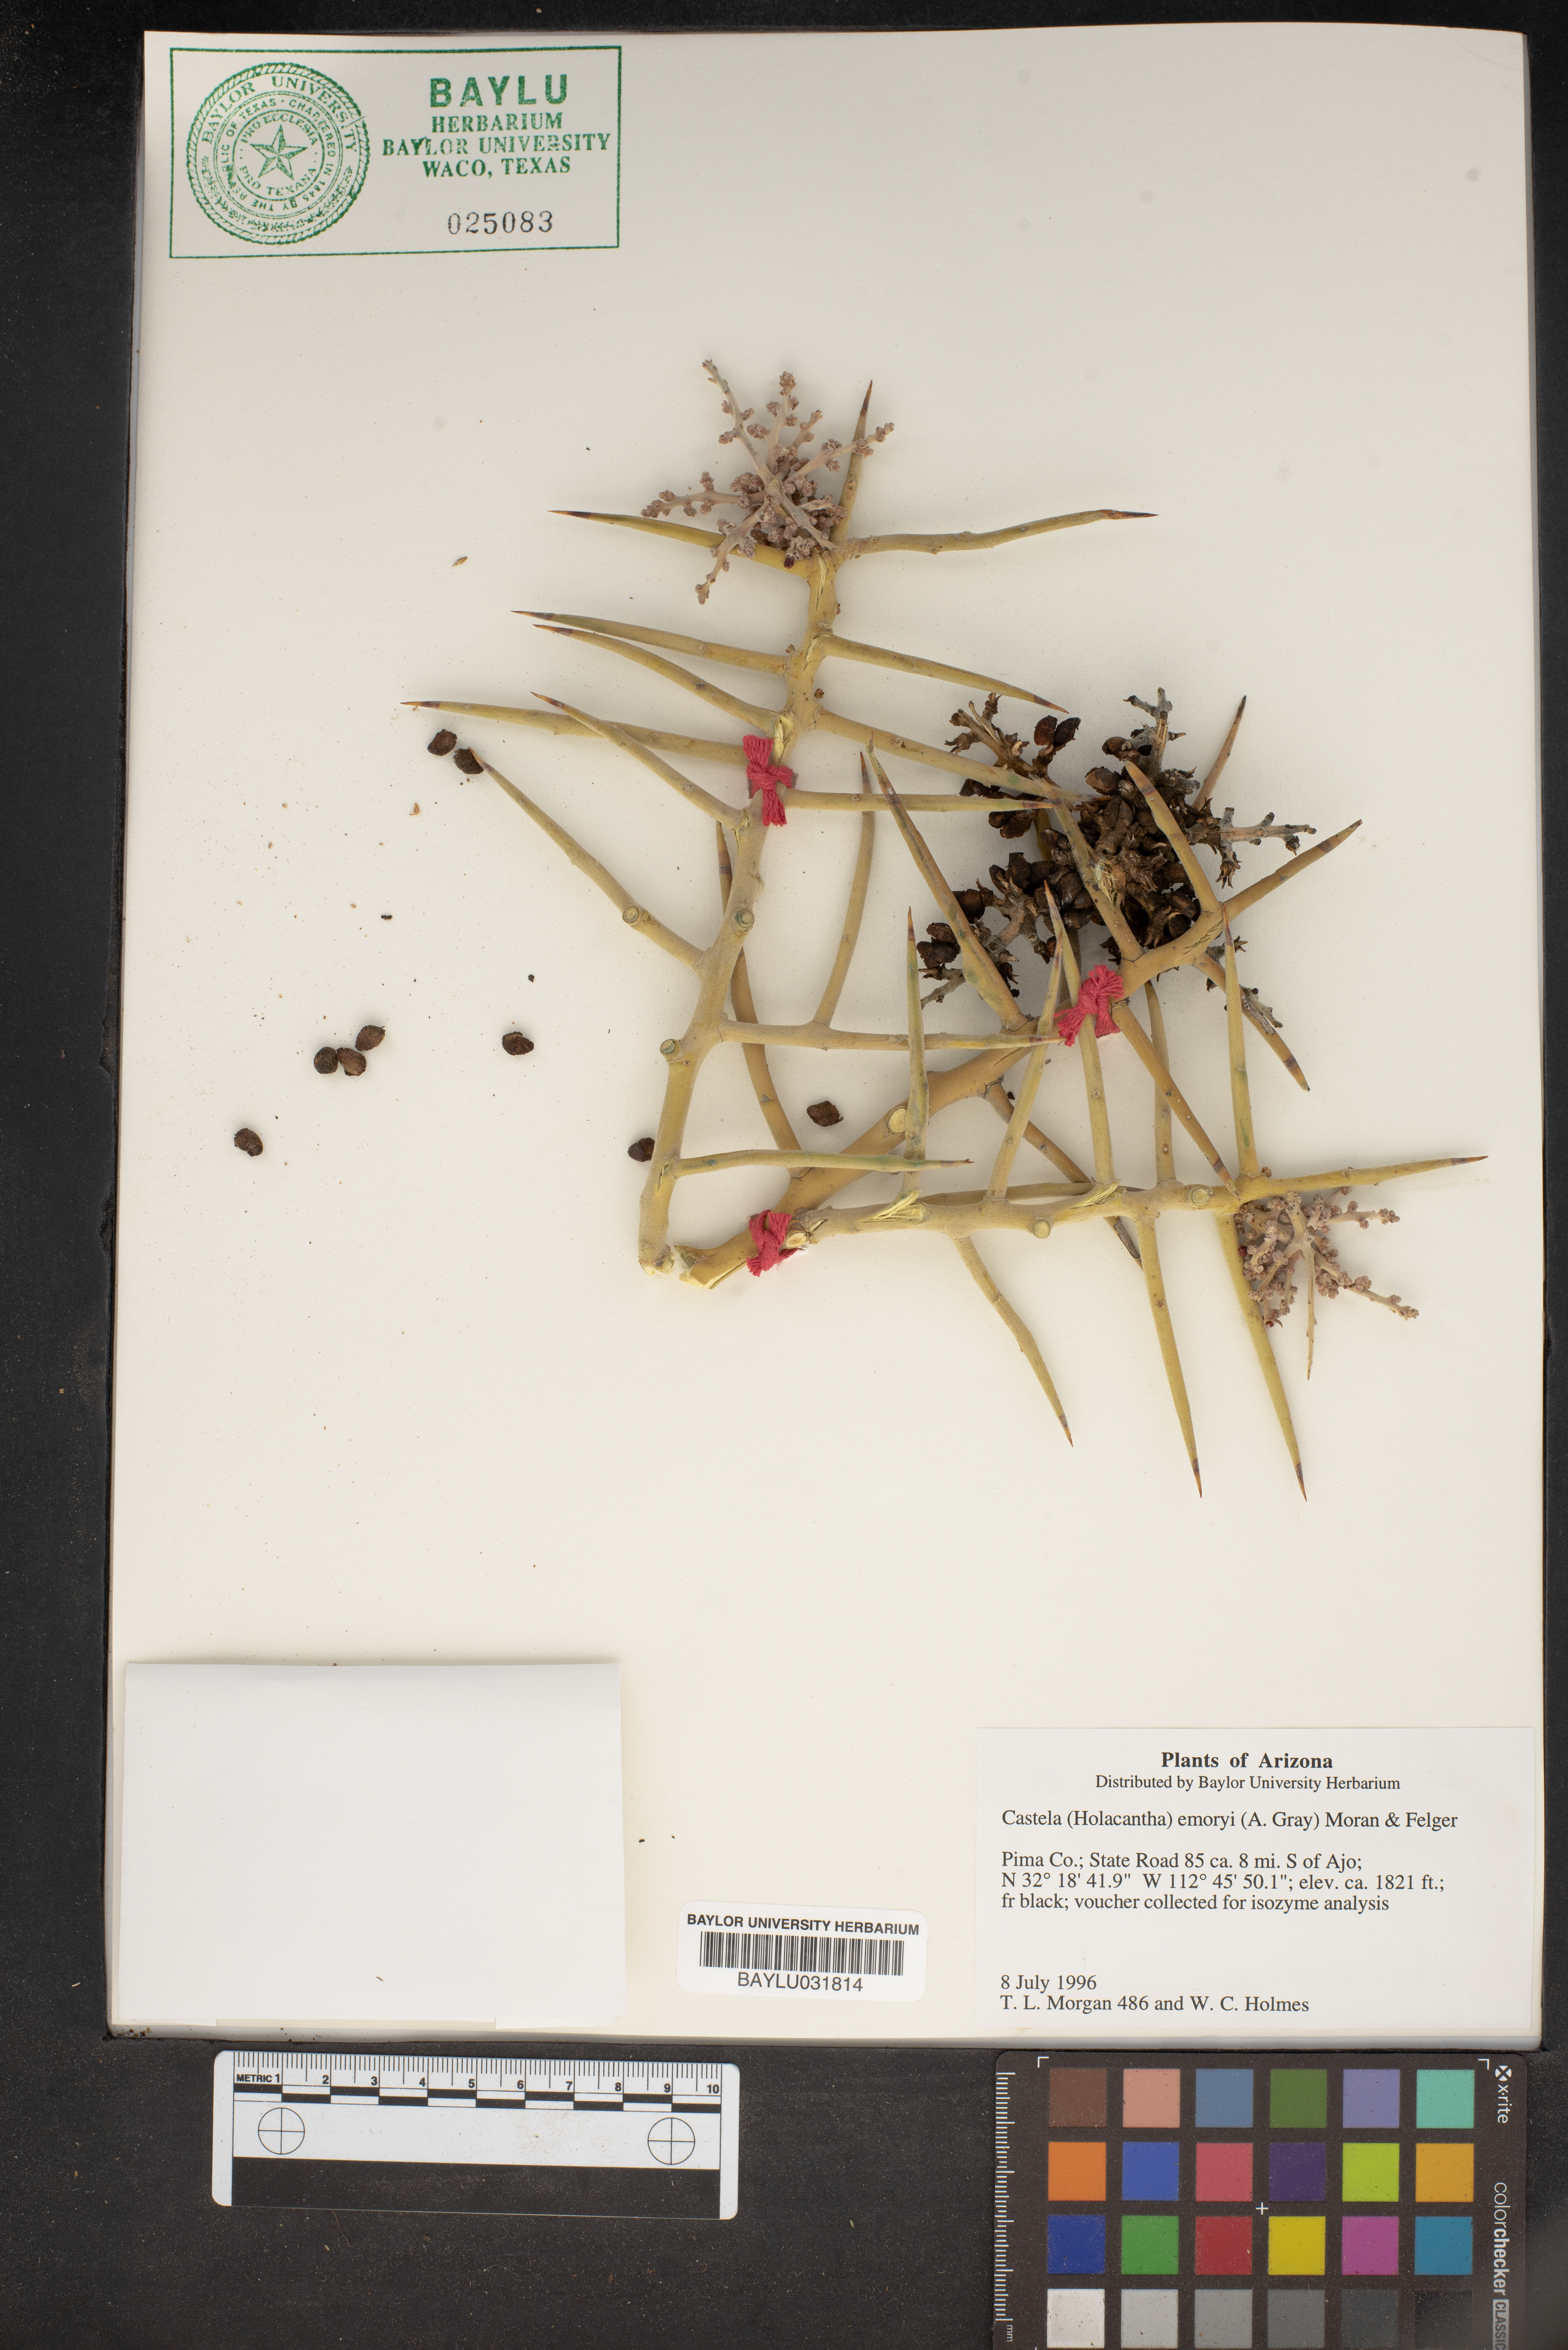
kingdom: Plantae
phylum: Tracheophyta
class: Magnoliopsida
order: Sapindales
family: Simaroubaceae
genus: Holacantha
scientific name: Holacantha emoryi
